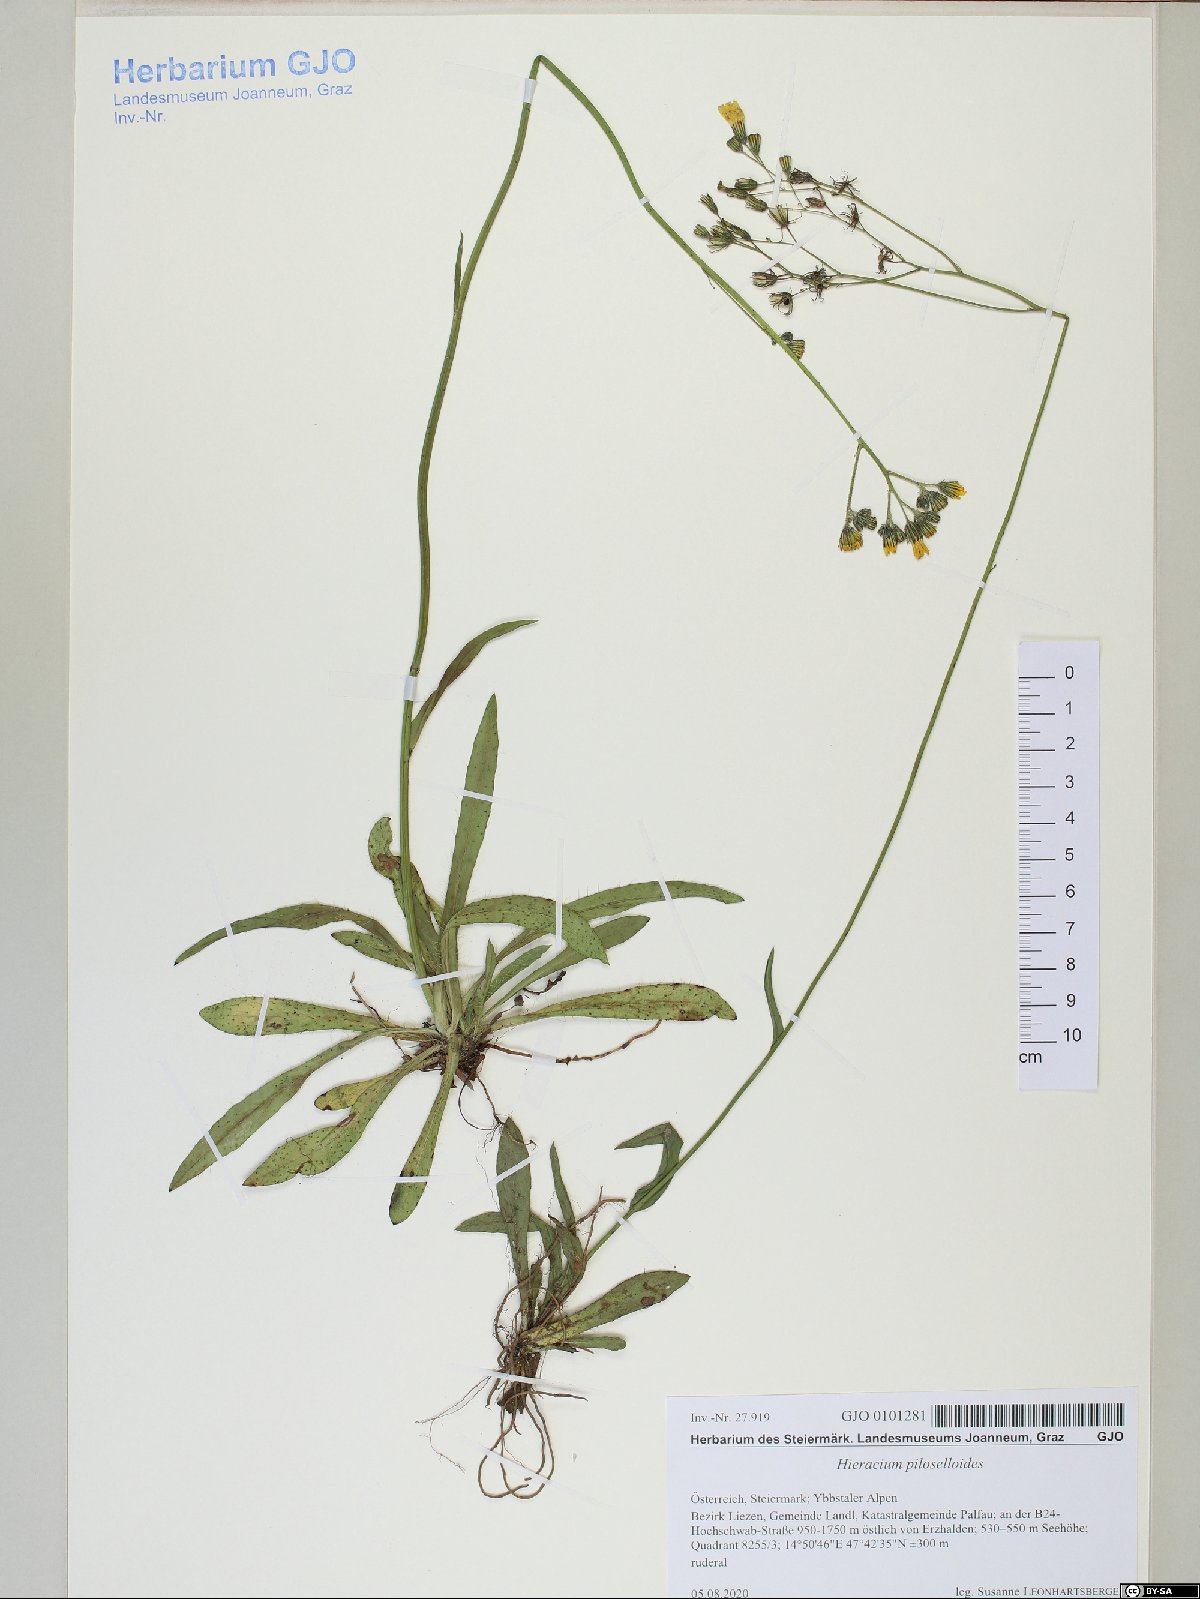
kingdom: Plantae
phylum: Tracheophyta
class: Magnoliopsida
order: Asterales
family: Asteraceae
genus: Pilosella
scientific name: Pilosella piloselloides
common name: Glaucous king-devil
